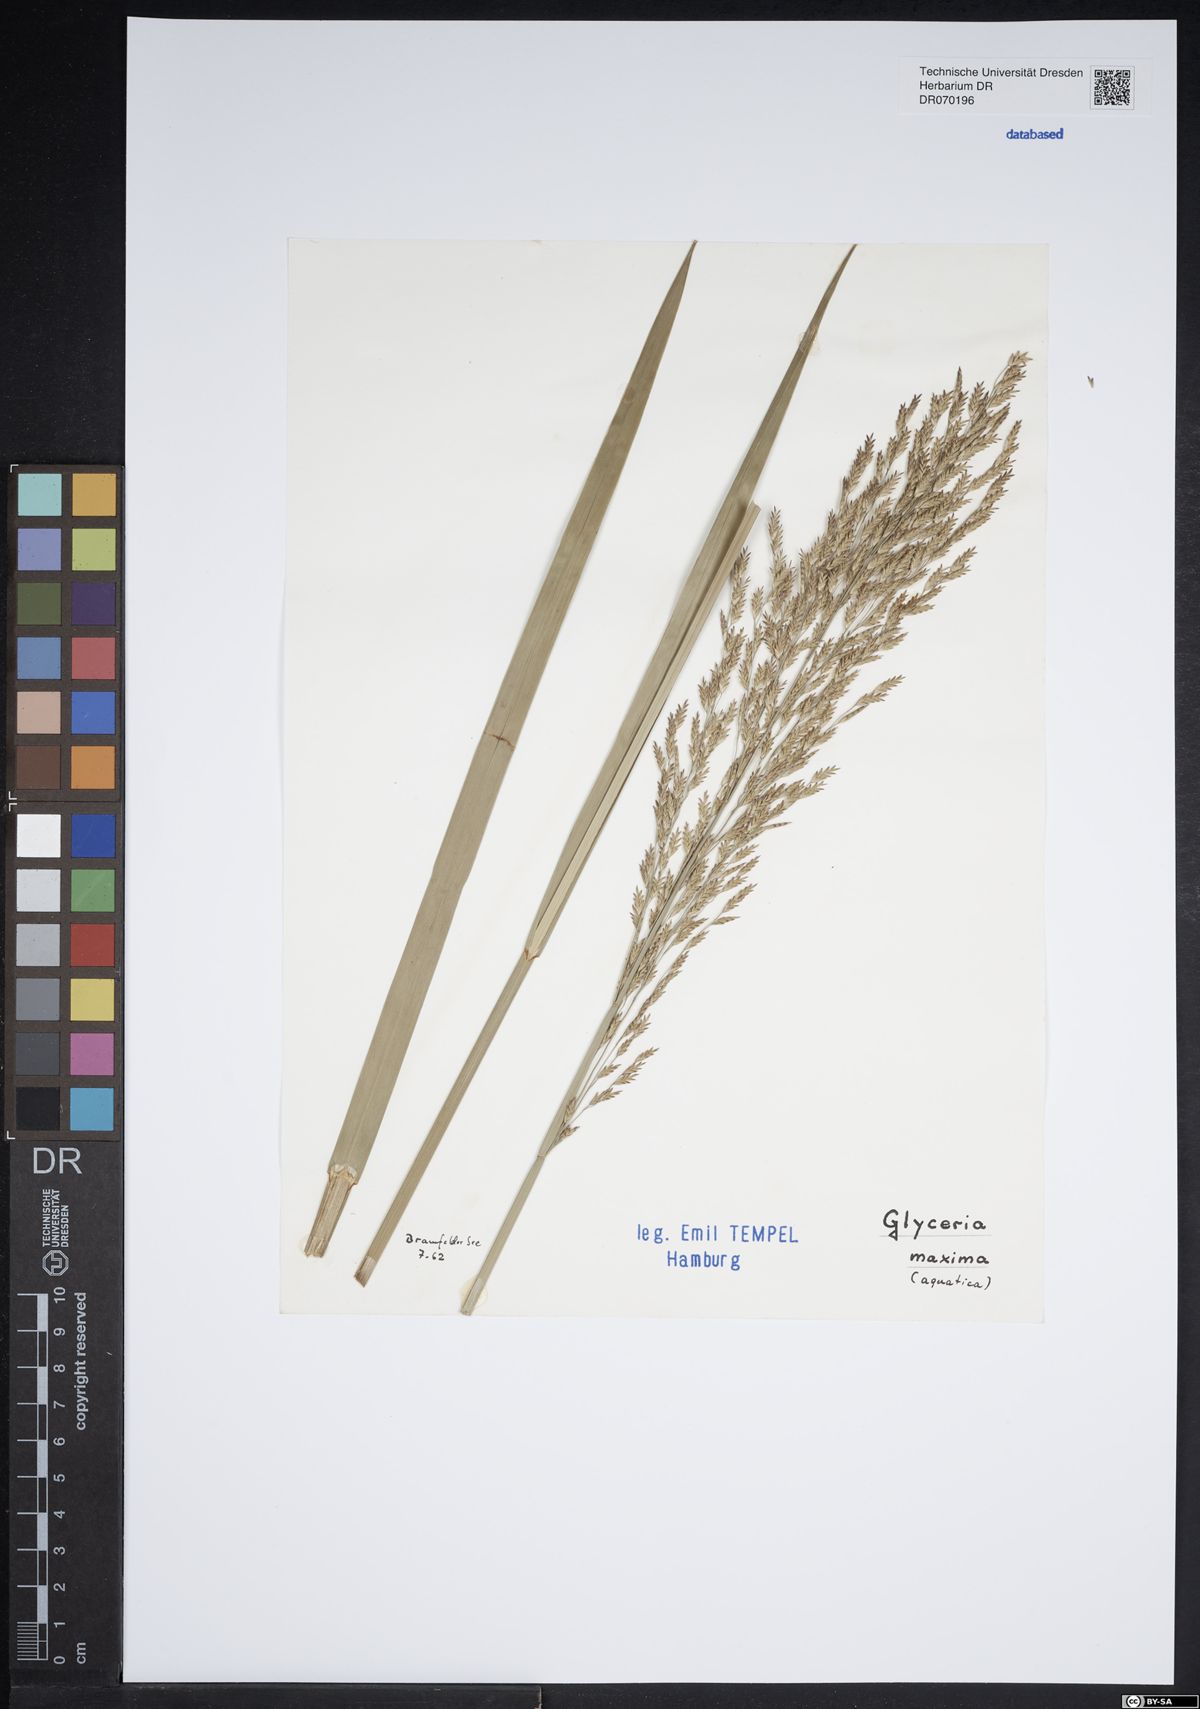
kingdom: Plantae
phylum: Tracheophyta
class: Liliopsida
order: Poales
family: Poaceae
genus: Glyceria
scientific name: Glyceria maxima
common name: Reed mannagrass
